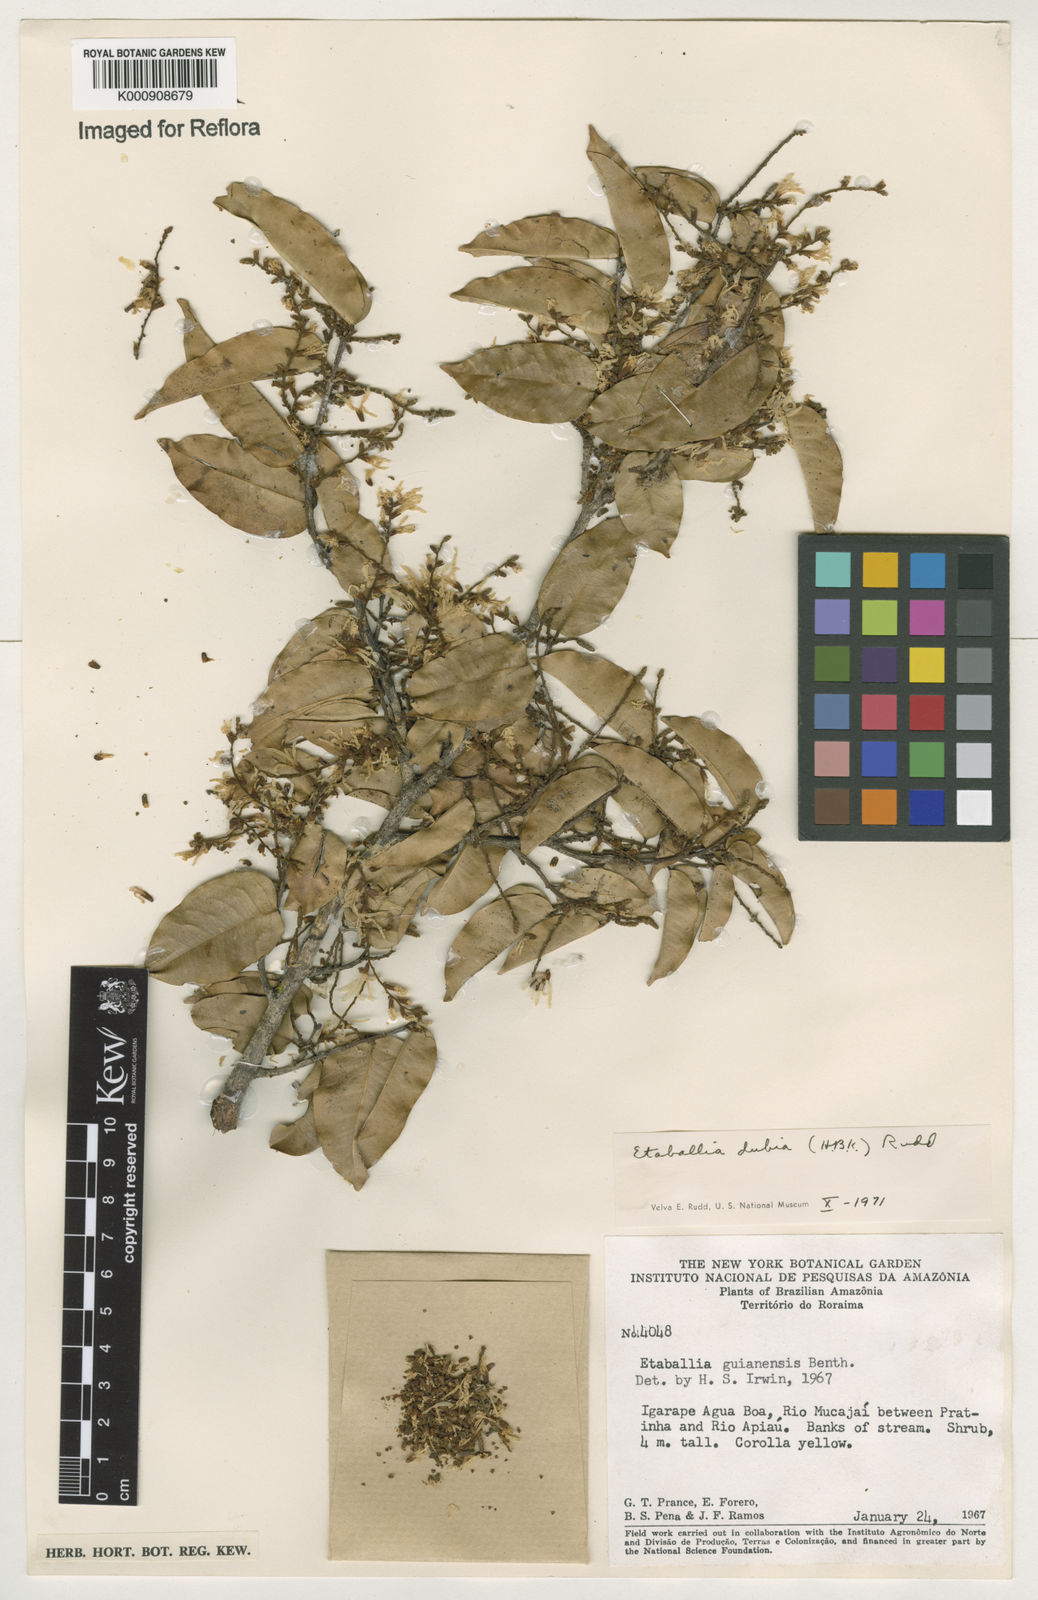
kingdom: Plantae
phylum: Tracheophyta
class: Magnoliopsida
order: Fabales
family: Fabaceae
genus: Pterocarpus
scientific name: Pterocarpus dubius
